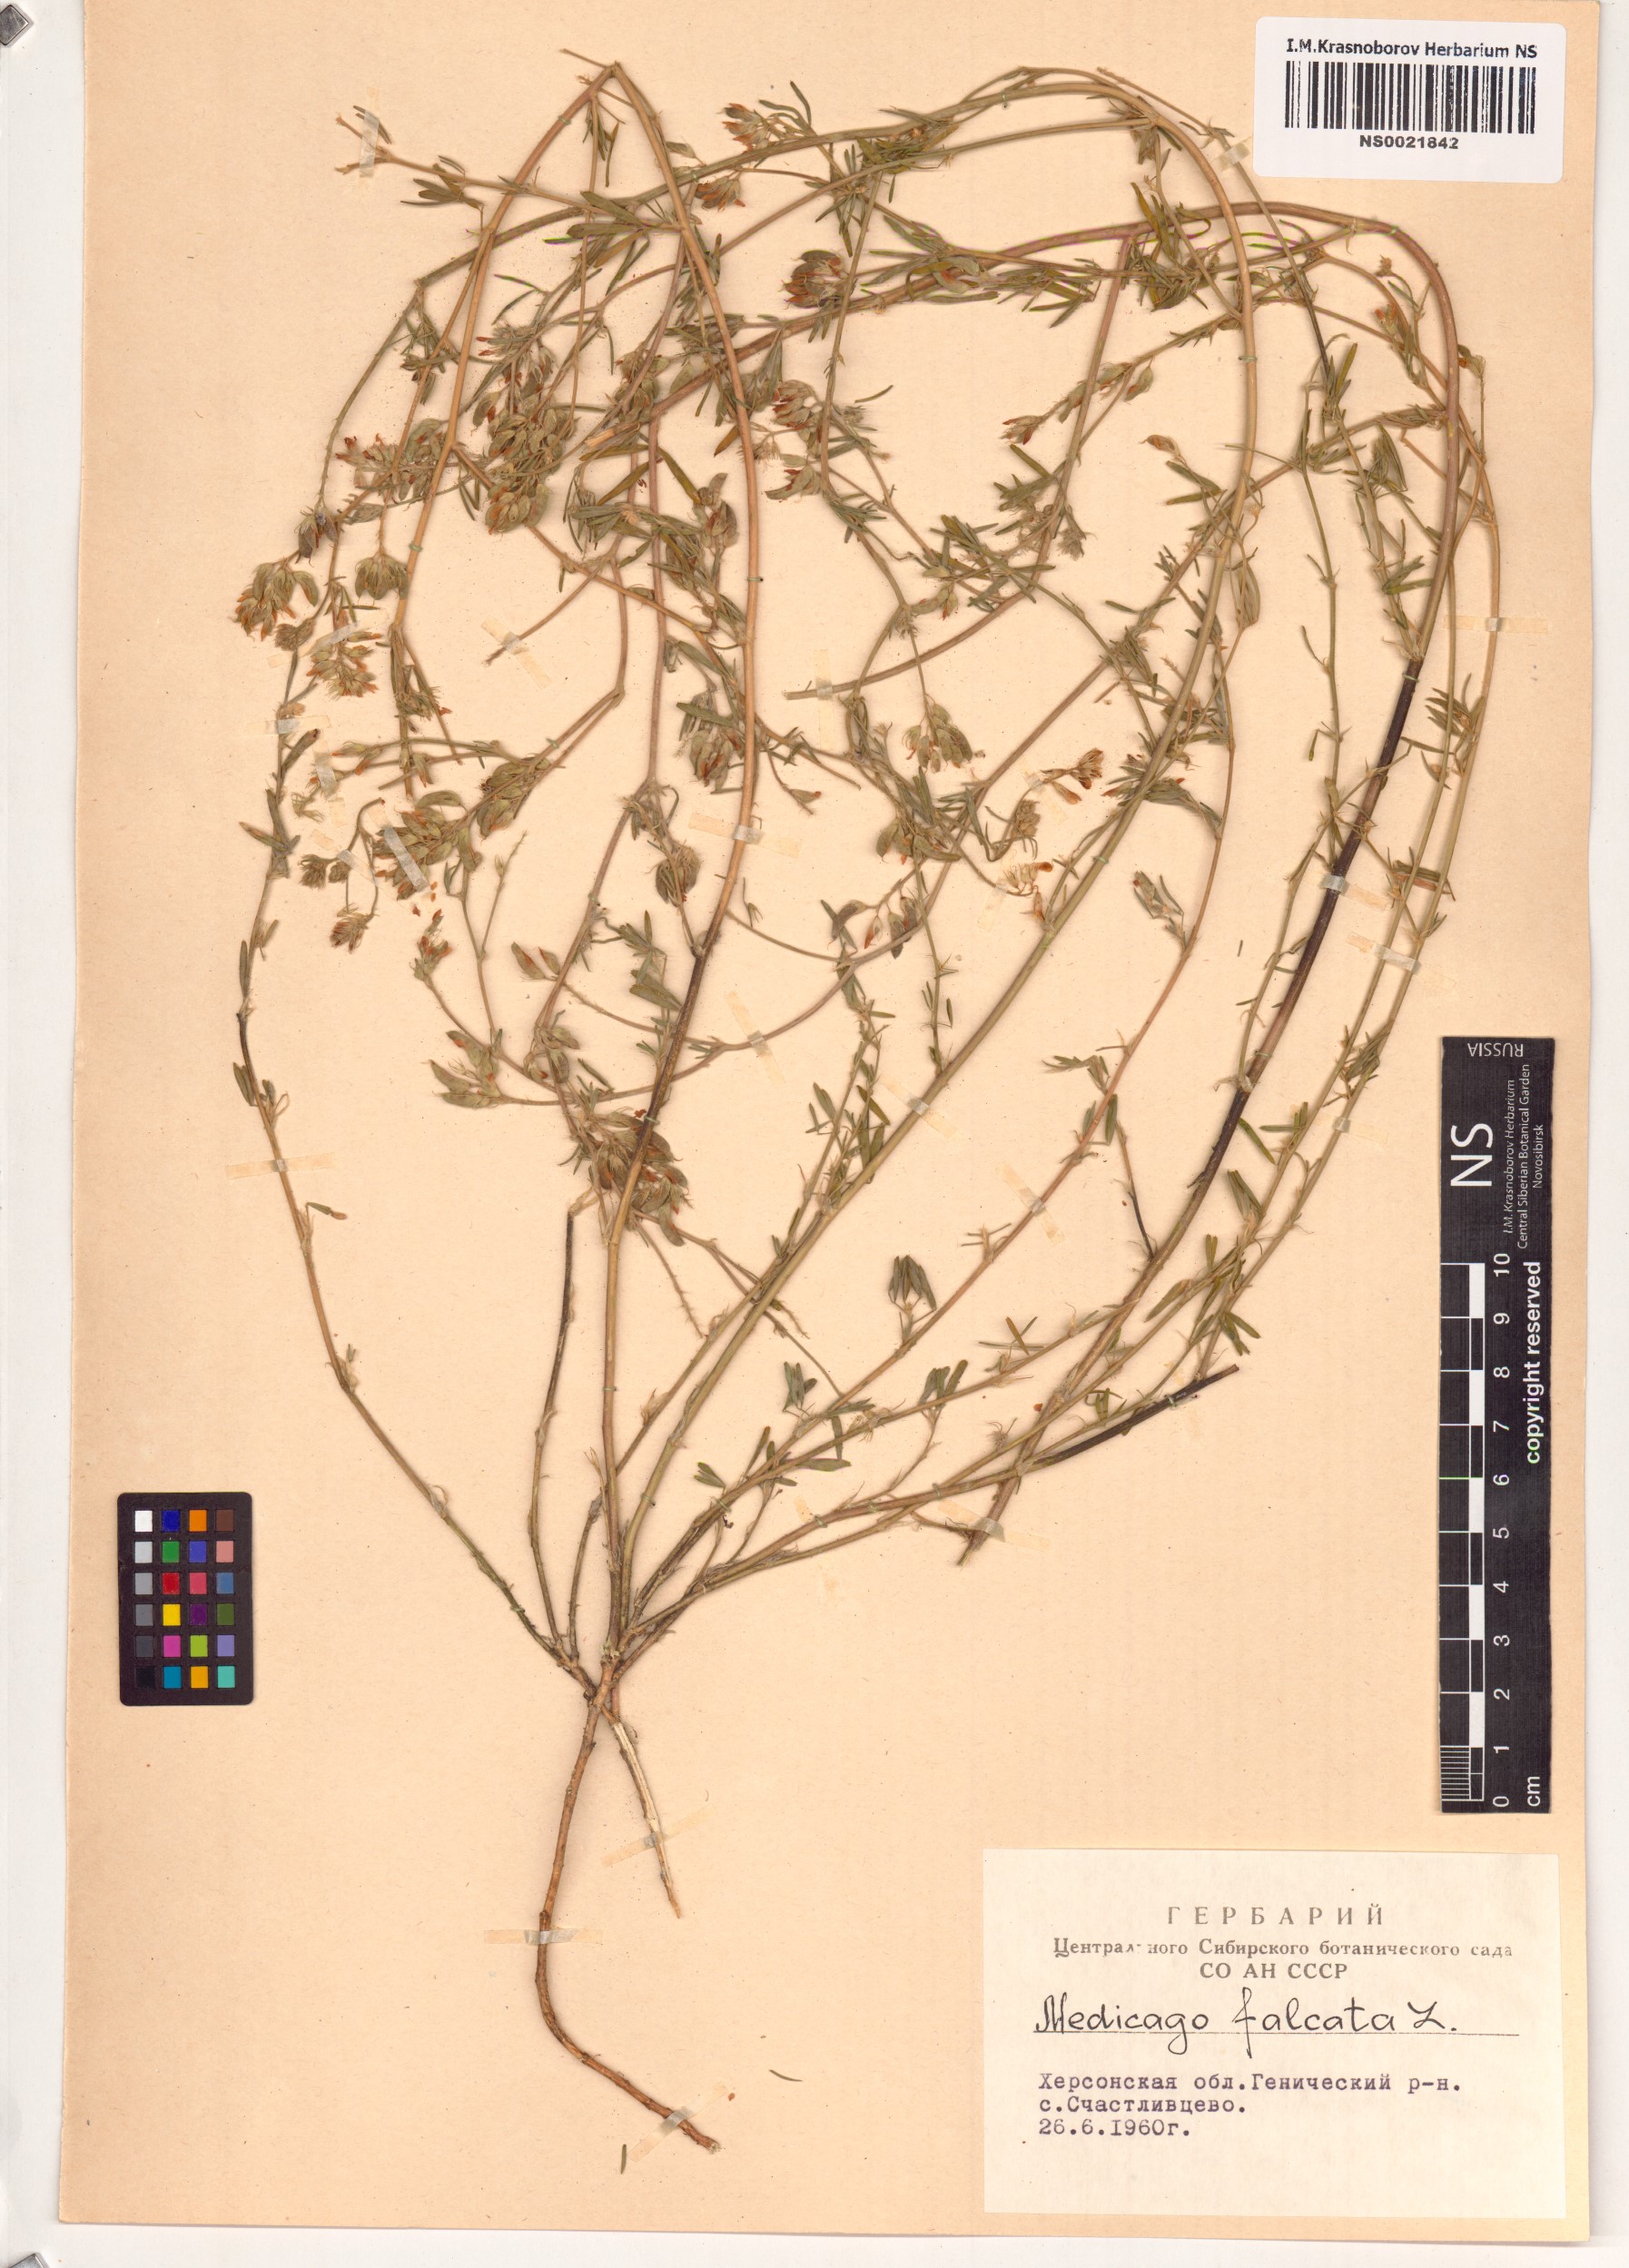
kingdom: Plantae
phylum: Tracheophyta
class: Magnoliopsida
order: Fabales
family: Fabaceae
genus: Medicago
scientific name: Medicago falcata
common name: Sickle medick
